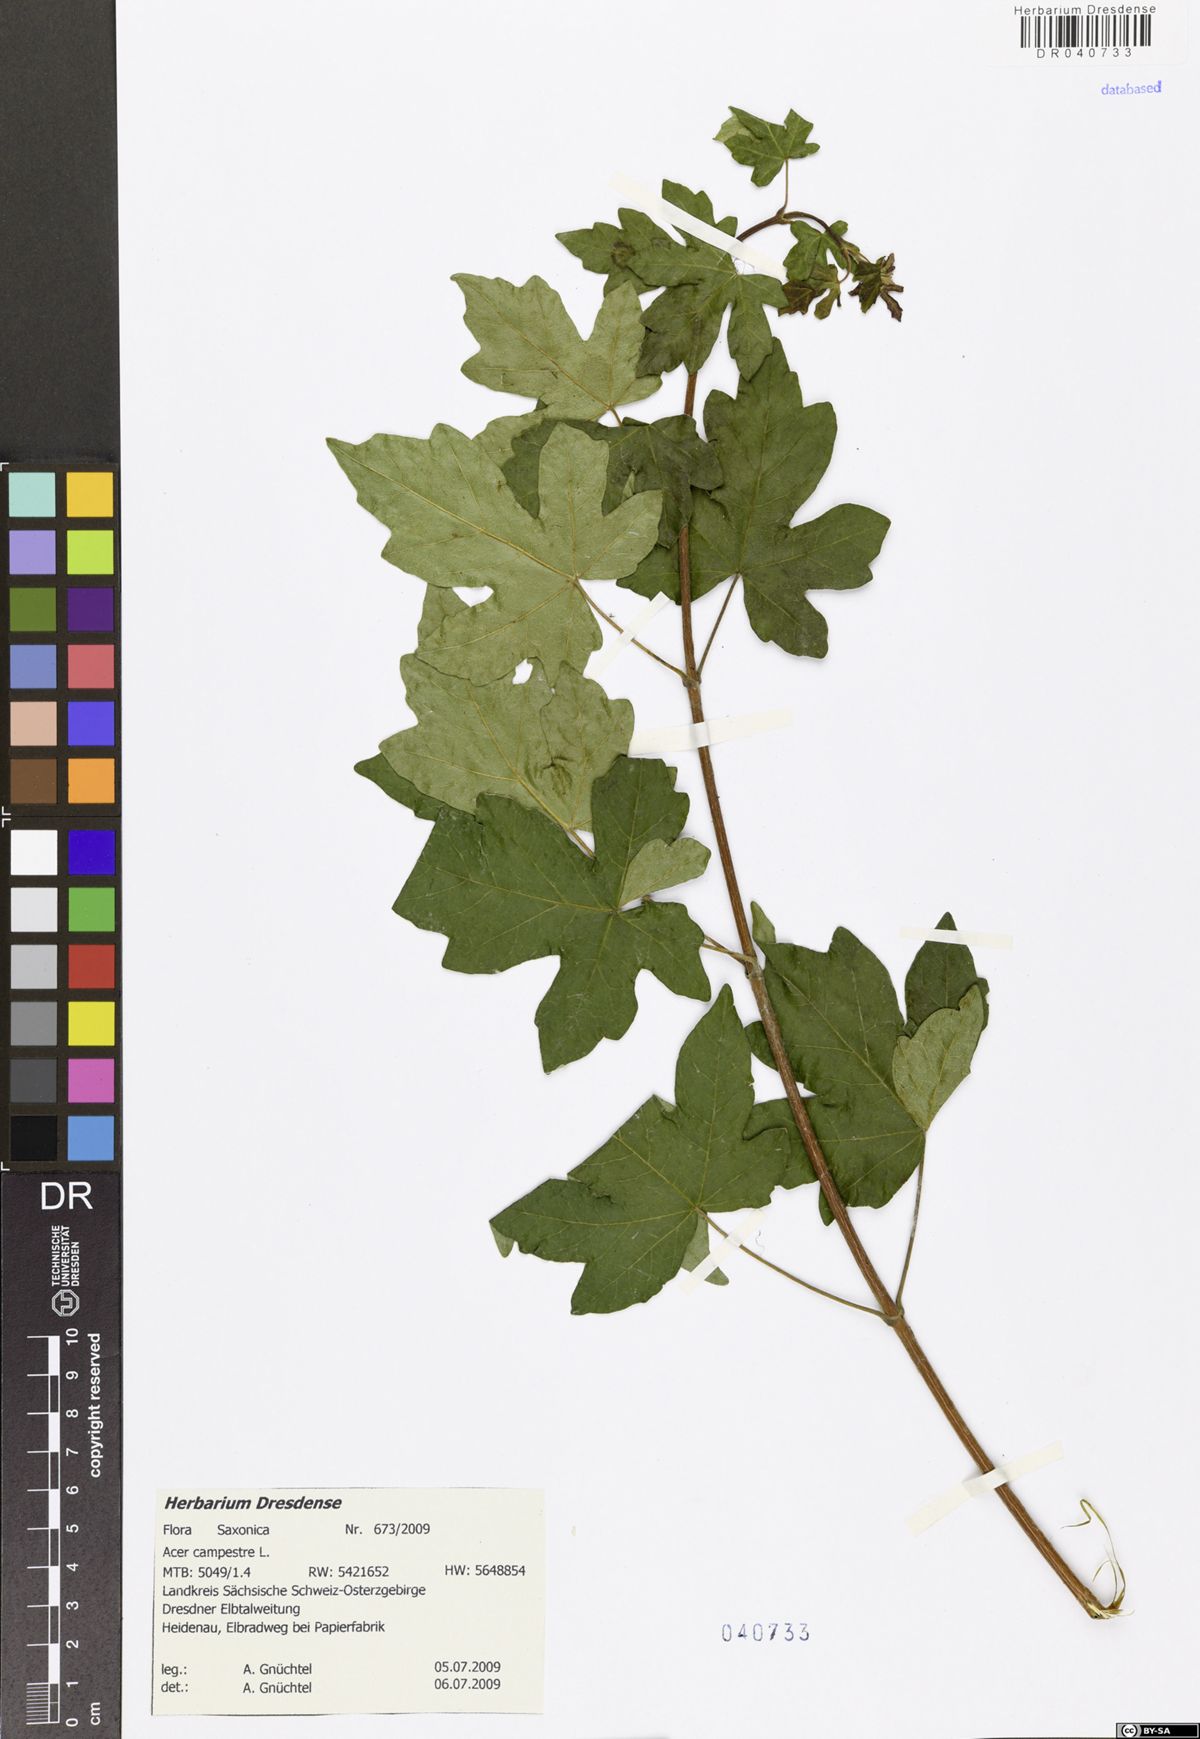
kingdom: Plantae
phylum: Tracheophyta
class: Magnoliopsida
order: Sapindales
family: Sapindaceae
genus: Acer
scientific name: Acer campestre
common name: Field maple
